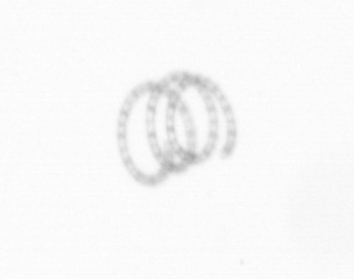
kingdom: Chromista
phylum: Ochrophyta
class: Bacillariophyceae
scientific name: Bacillariophyceae
